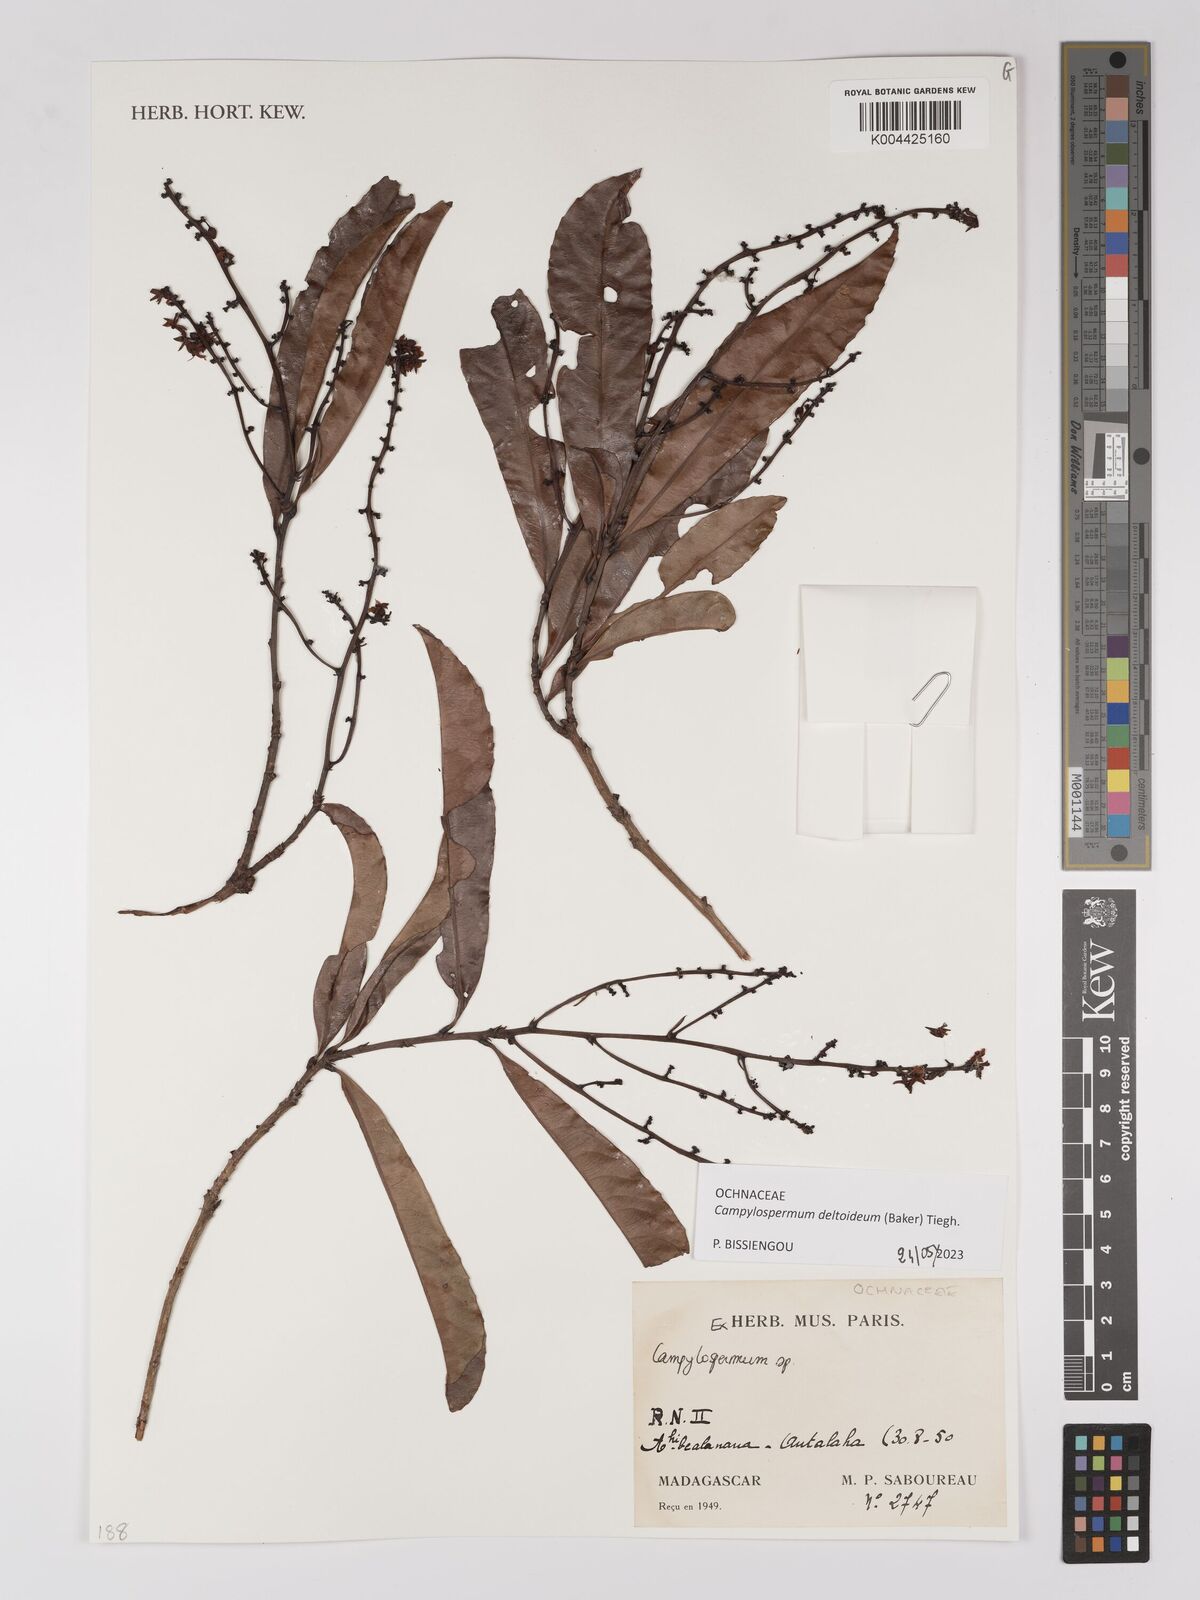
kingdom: Plantae
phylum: Tracheophyta
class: Magnoliopsida
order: Malpighiales
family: Ochnaceae
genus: Campylospermum
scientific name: Campylospermum
